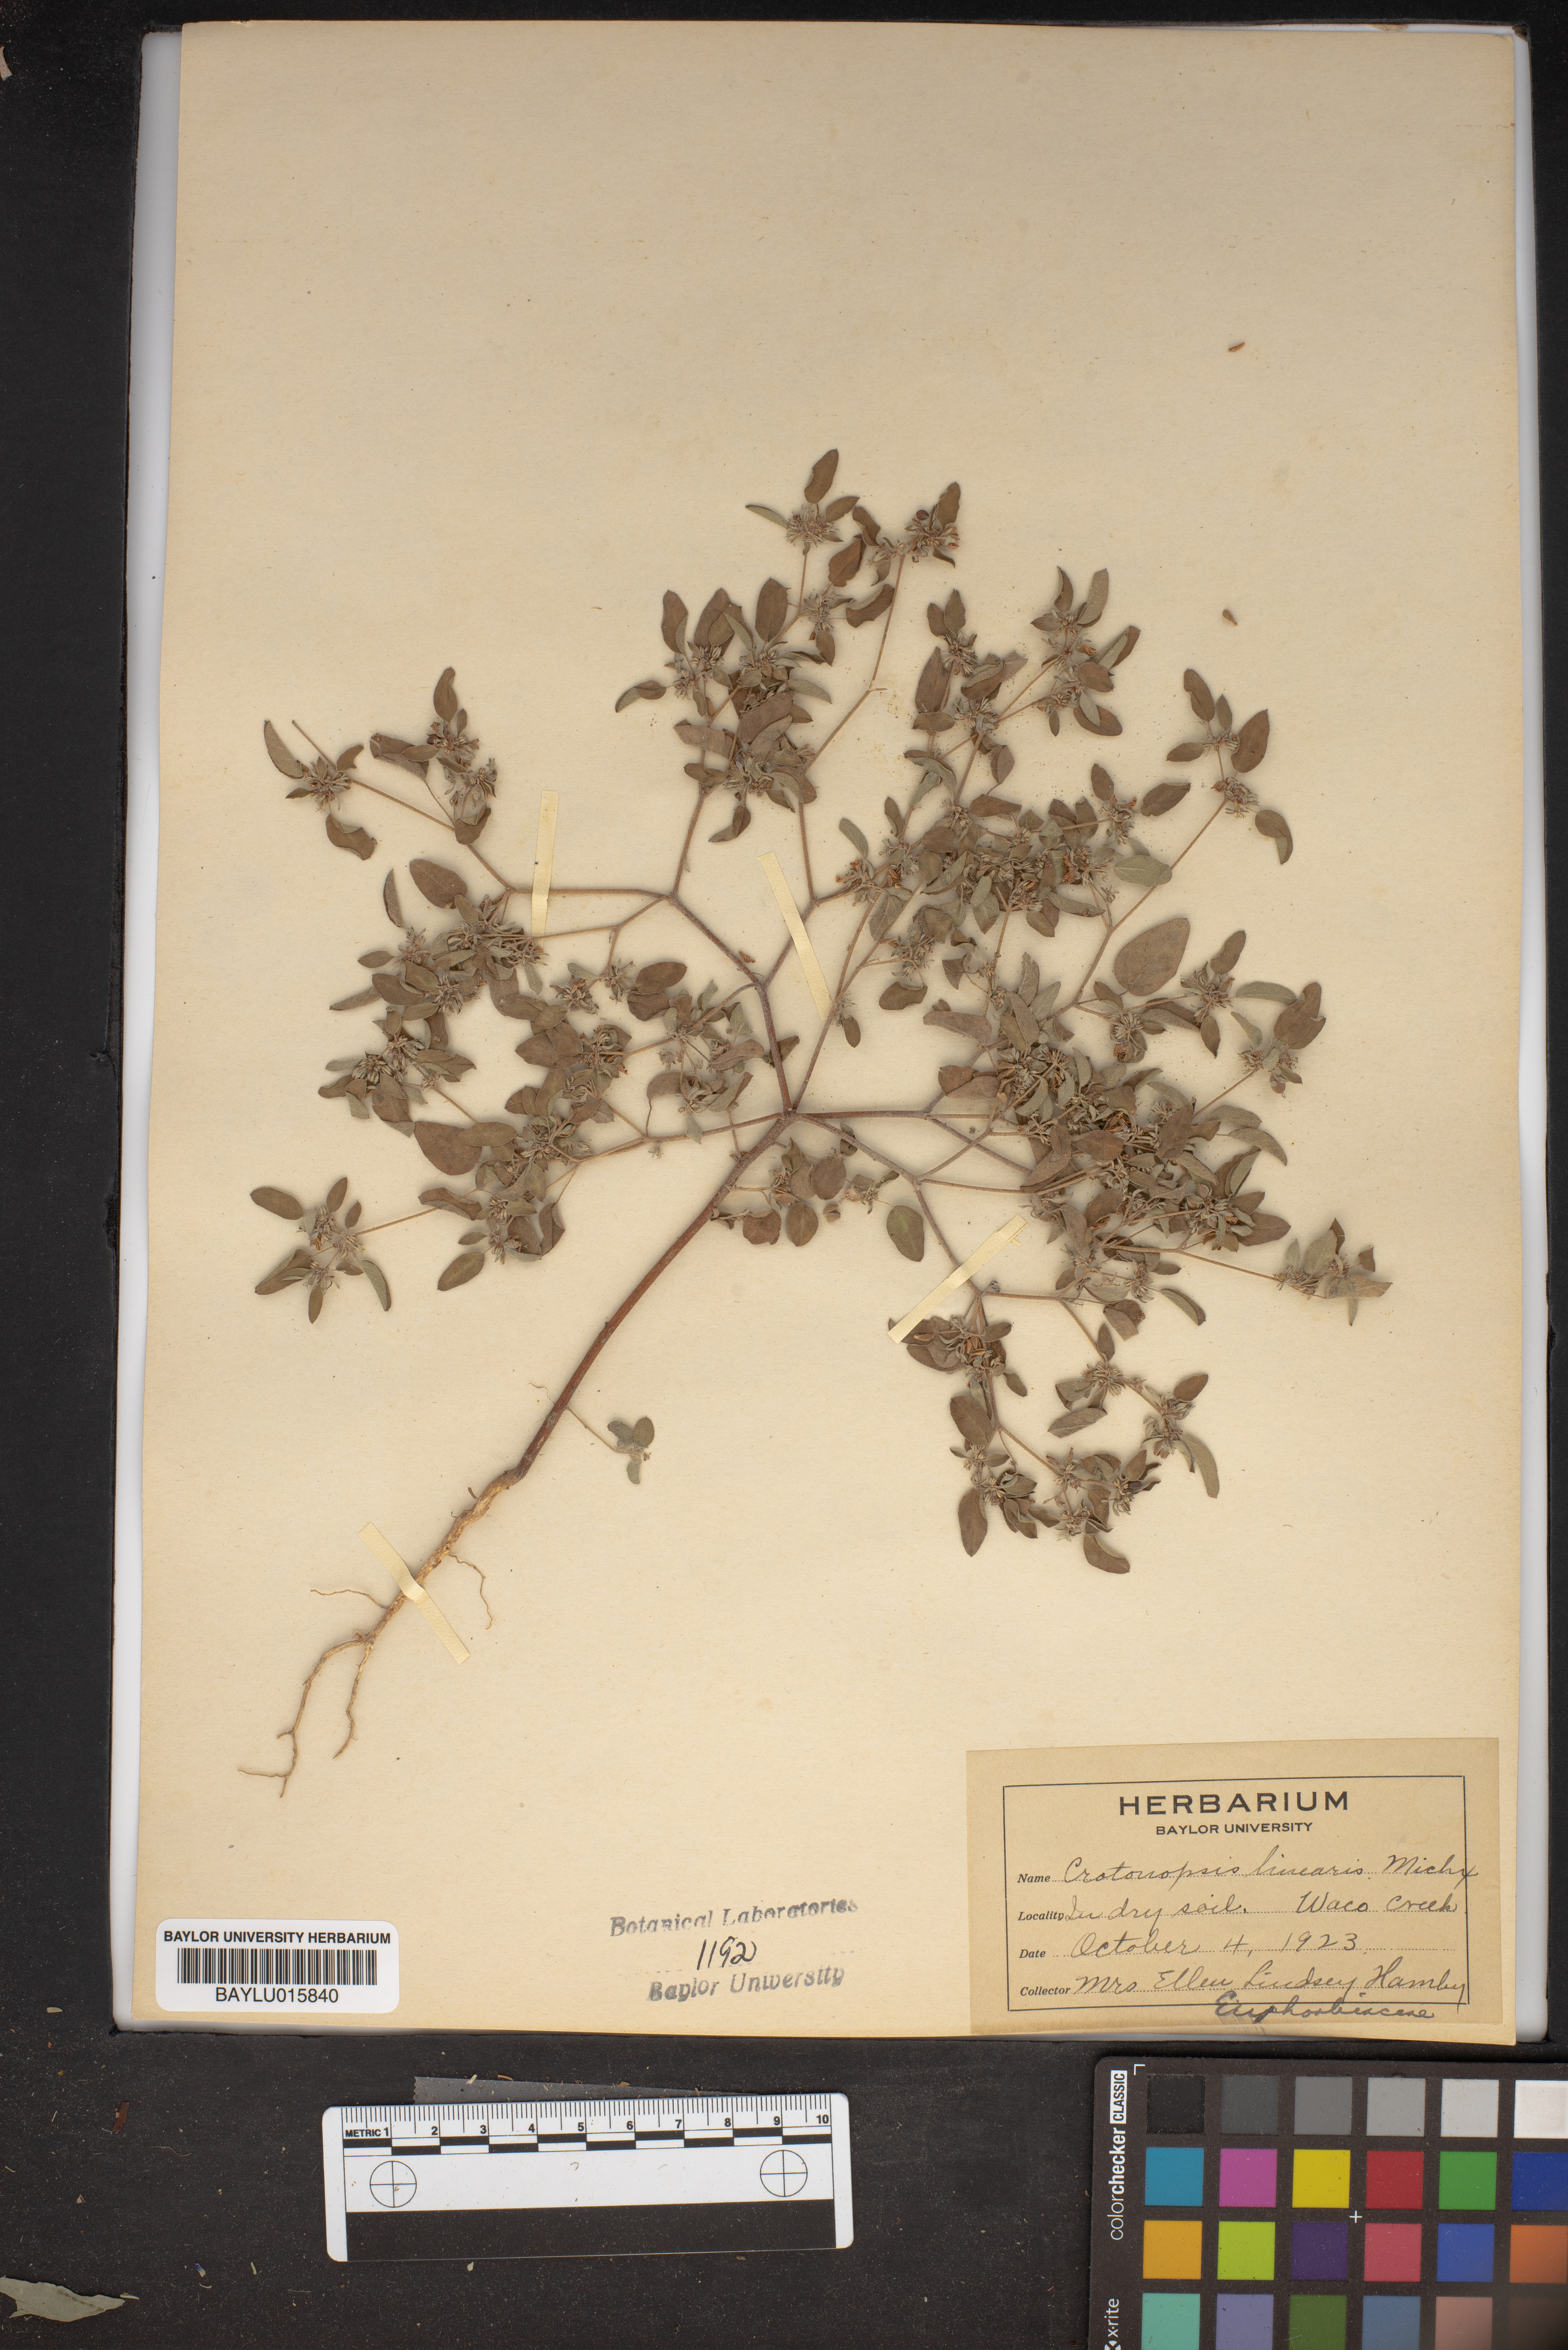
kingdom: Plantae
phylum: Tracheophyta
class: Magnoliopsida
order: Malpighiales
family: Euphorbiaceae
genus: Croton
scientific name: Croton michauxii
